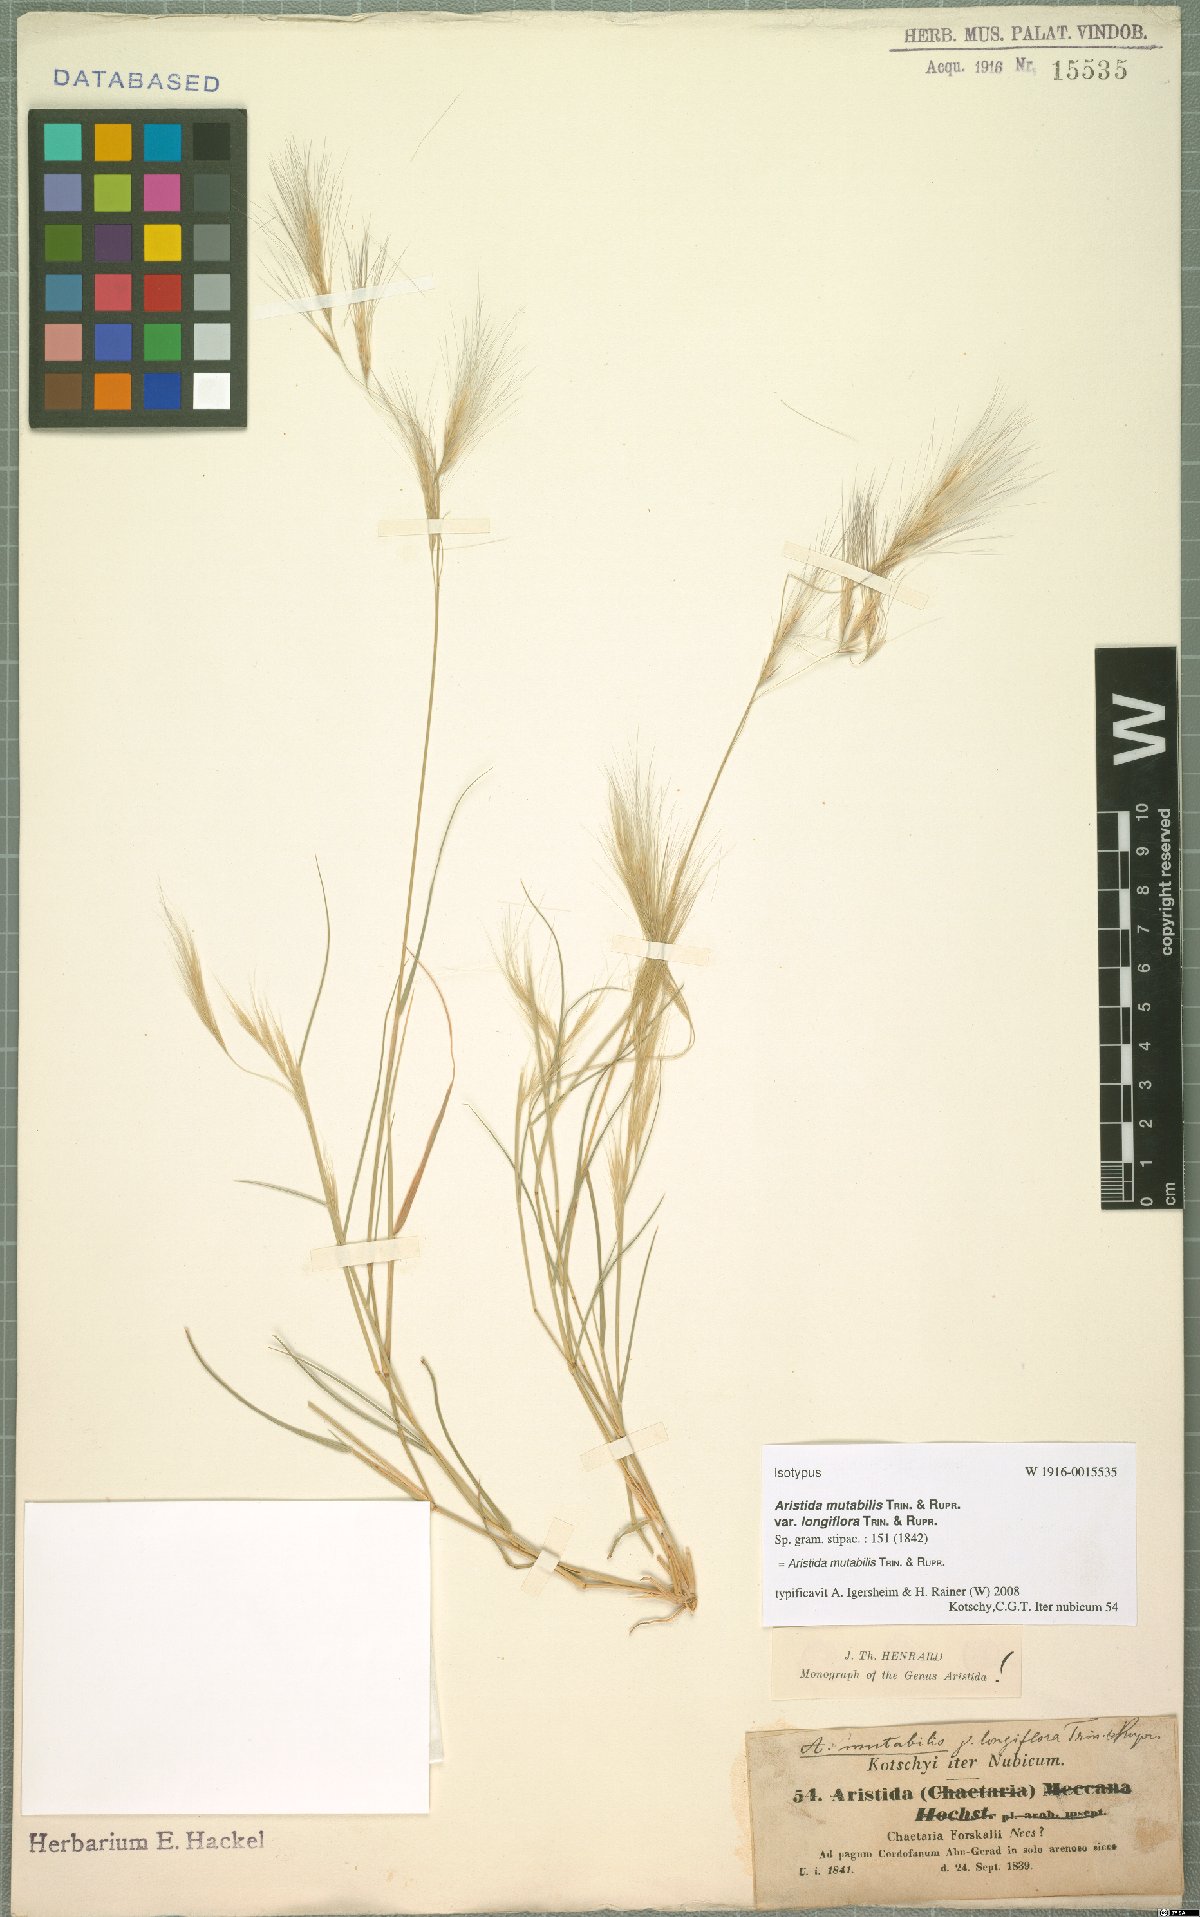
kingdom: Plantae
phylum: Tracheophyta
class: Liliopsida
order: Poales
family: Poaceae
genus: Aristida
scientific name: Aristida mutabilis
